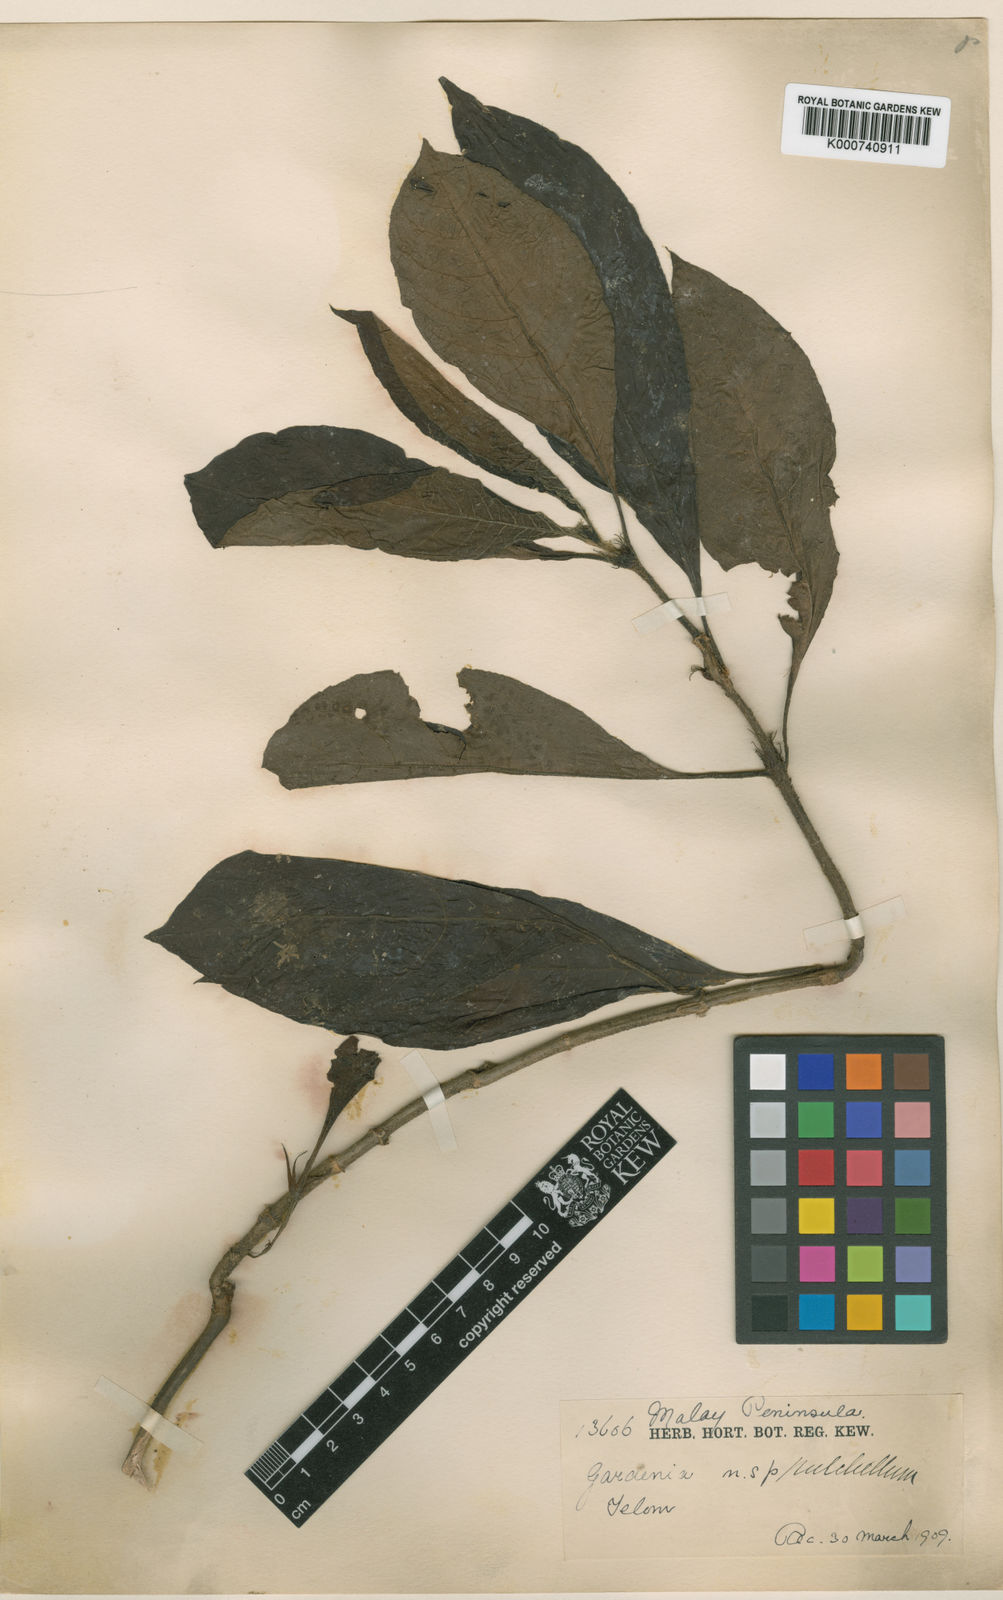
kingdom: Plantae
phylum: Tracheophyta
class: Magnoliopsida
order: Gentianales
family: Rubiaceae
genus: Acranthera
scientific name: Acranthera virescens
